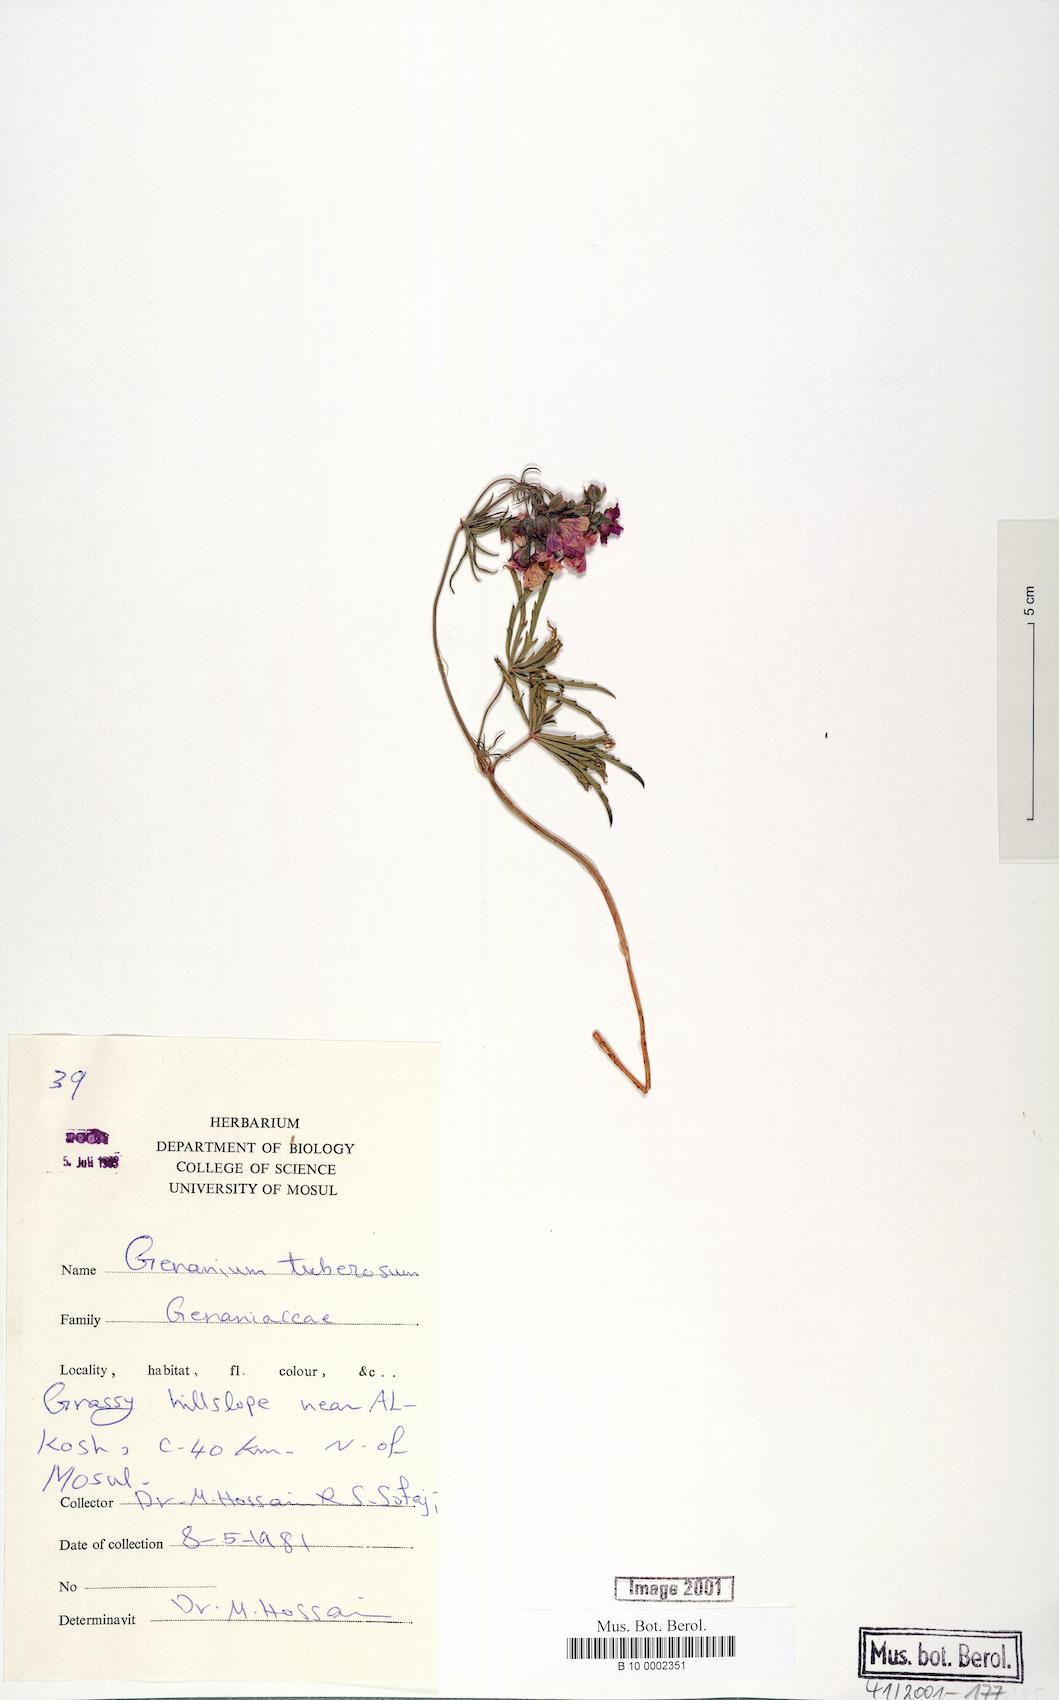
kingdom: Plantae
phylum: Tracheophyta
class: Magnoliopsida
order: Geraniales
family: Geraniaceae
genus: Geranium
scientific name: Geranium tuberosum
